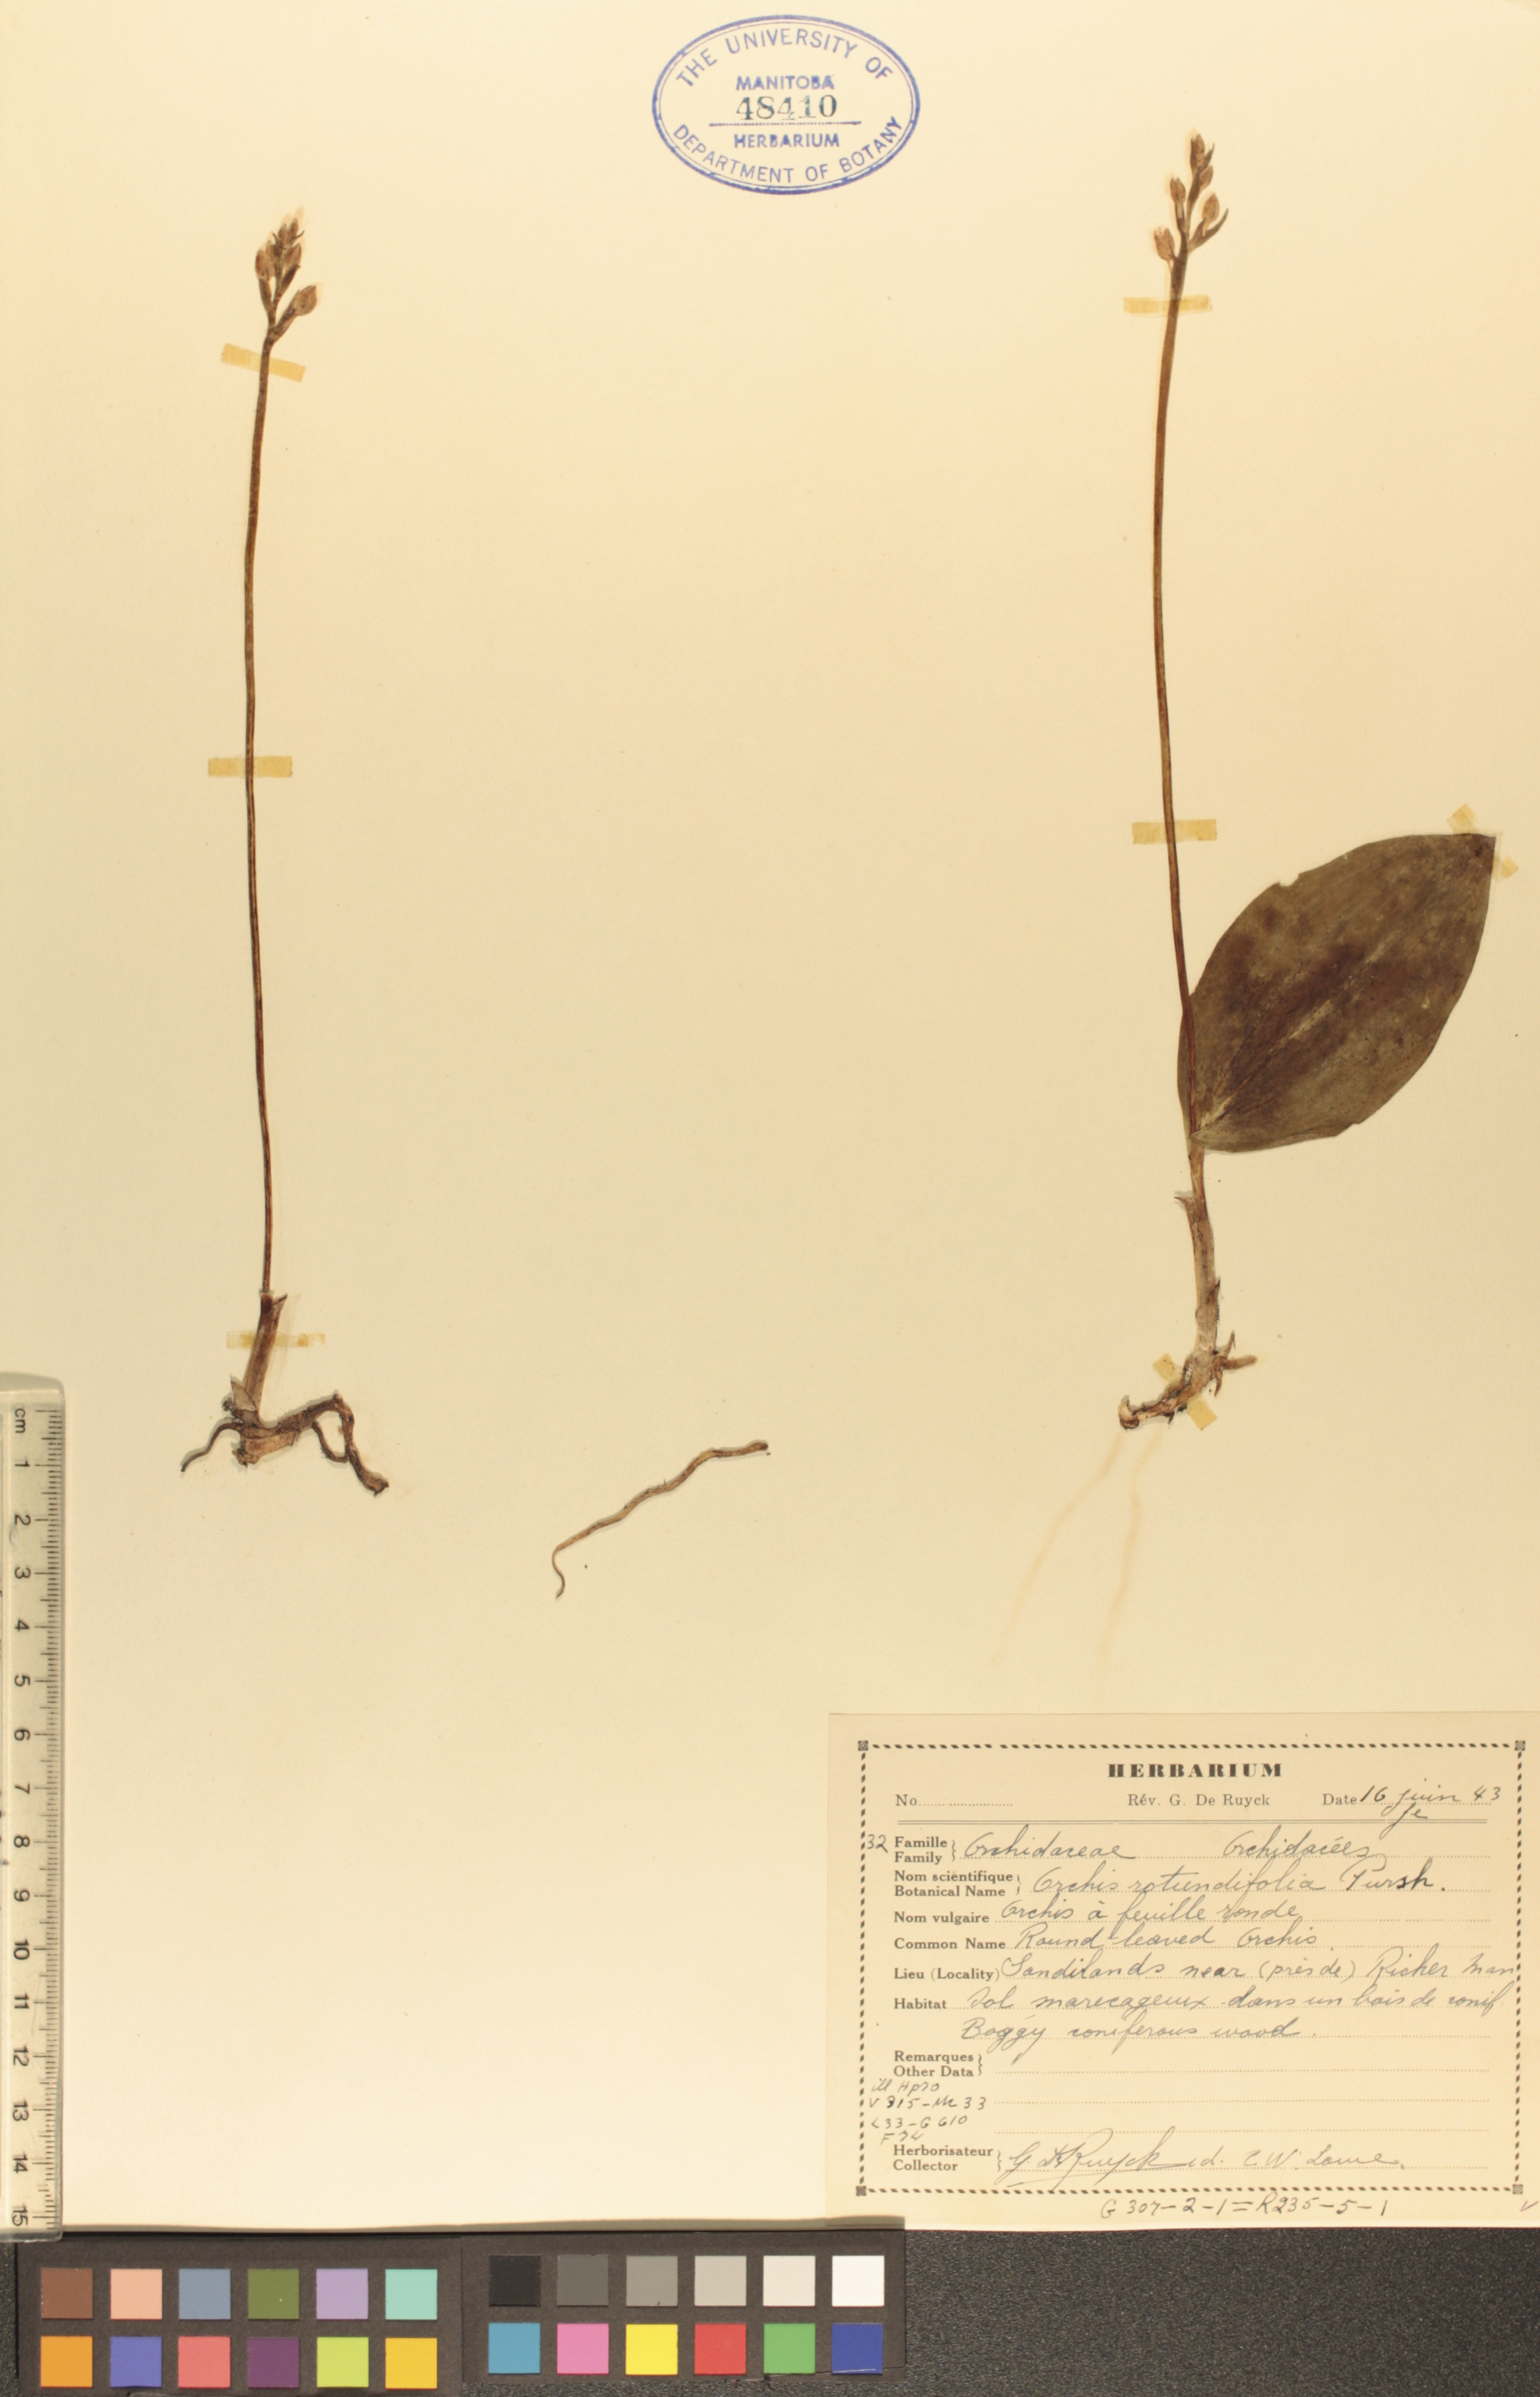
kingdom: Plantae
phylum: Tracheophyta
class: Liliopsida
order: Asparagales
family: Orchidaceae
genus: Galearis
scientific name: Galearis rotundifolia
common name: One-leaved orchis
